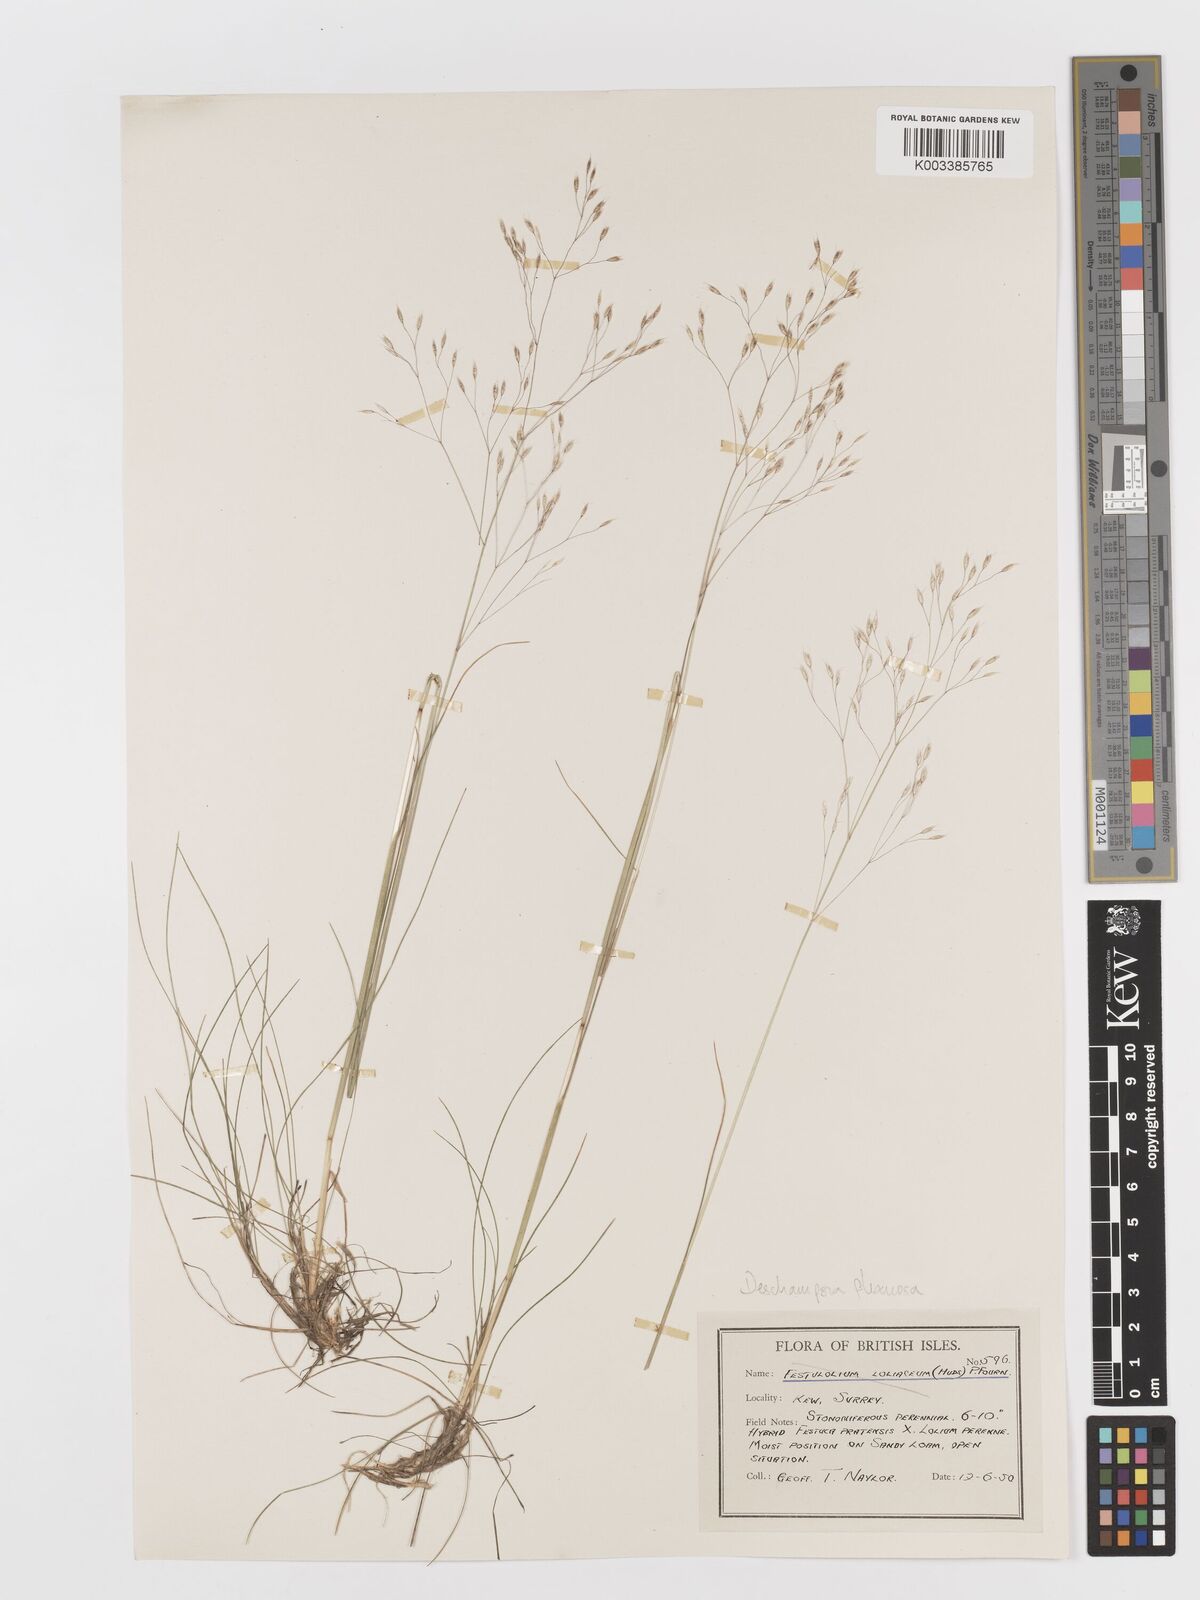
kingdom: Plantae
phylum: Tracheophyta
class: Liliopsida
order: Poales
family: Poaceae
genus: Avenella
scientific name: Avenella flexuosa
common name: Wavy hairgrass
